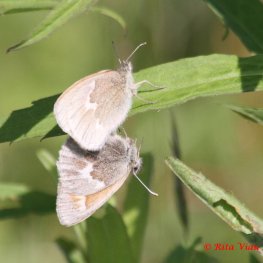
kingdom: Animalia
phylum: Arthropoda
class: Insecta
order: Lepidoptera
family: Nymphalidae
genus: Coenonympha
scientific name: Coenonympha tullia
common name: Large Heath
